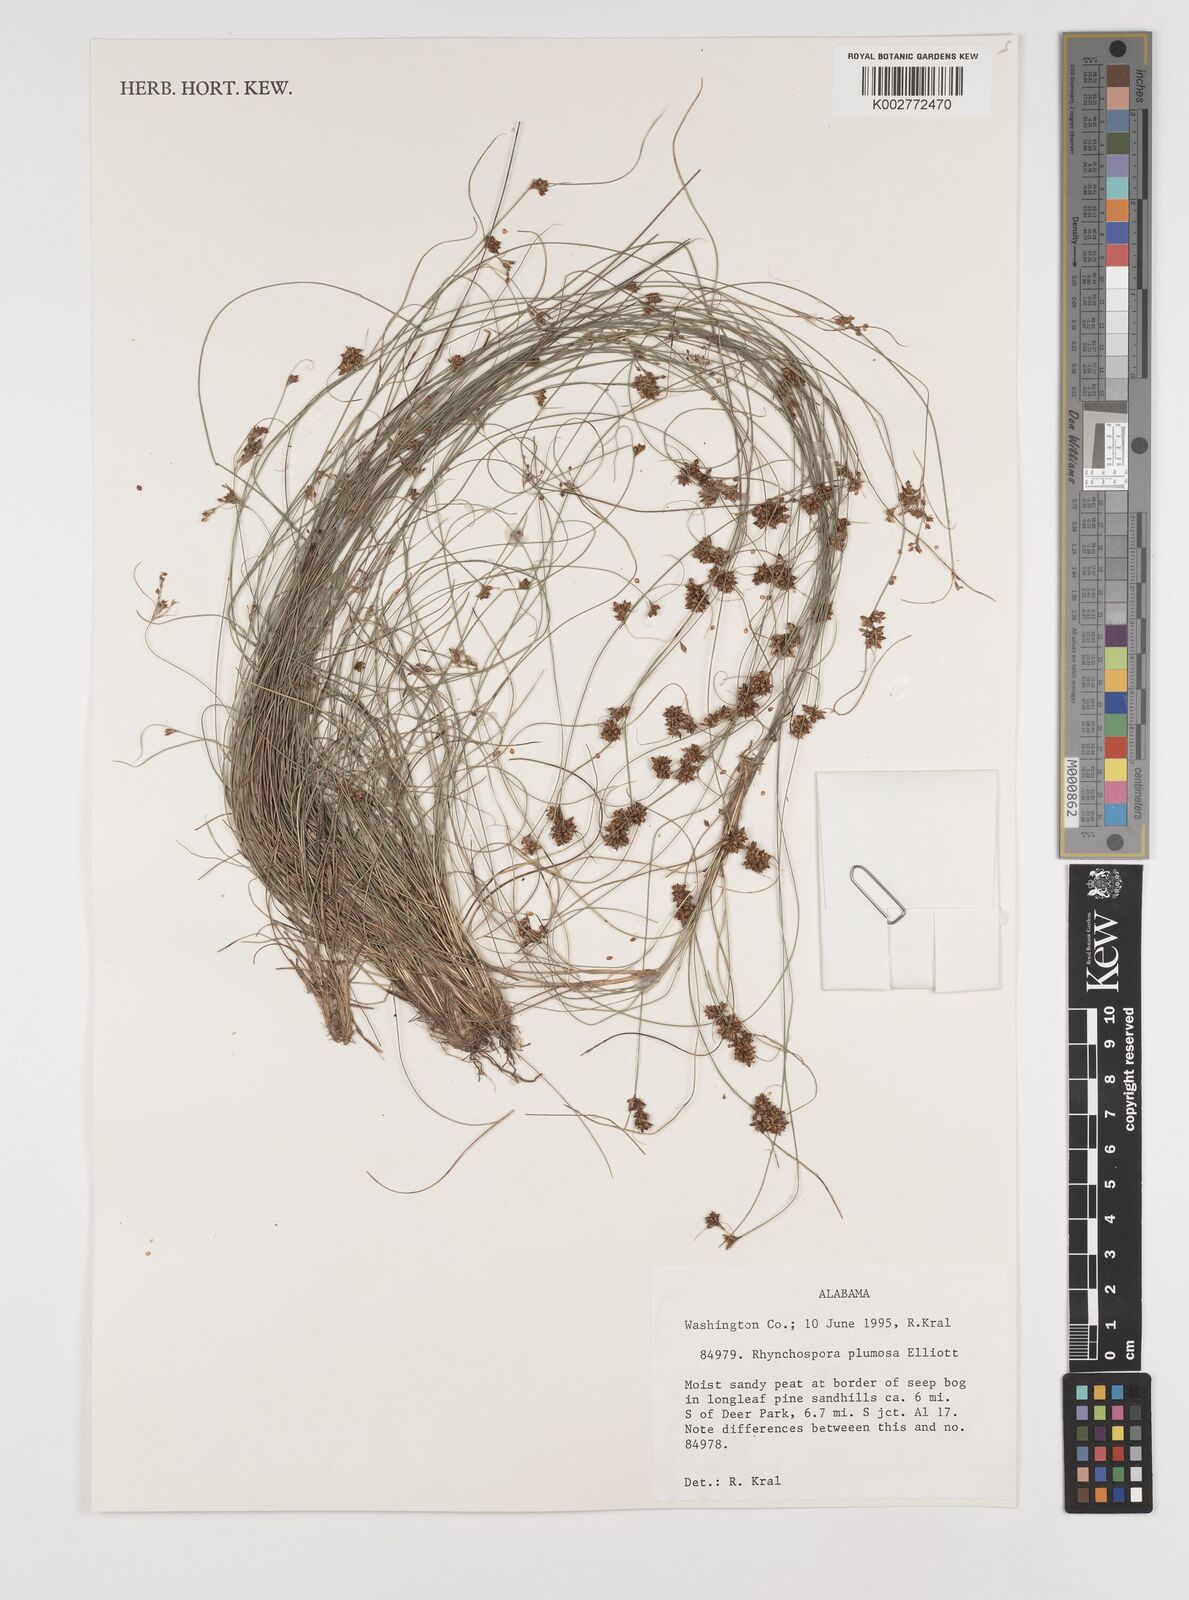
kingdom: Plantae
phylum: Tracheophyta
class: Liliopsida
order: Poales
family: Cyperaceae
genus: Rhynchospora
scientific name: Rhynchospora plumosa
